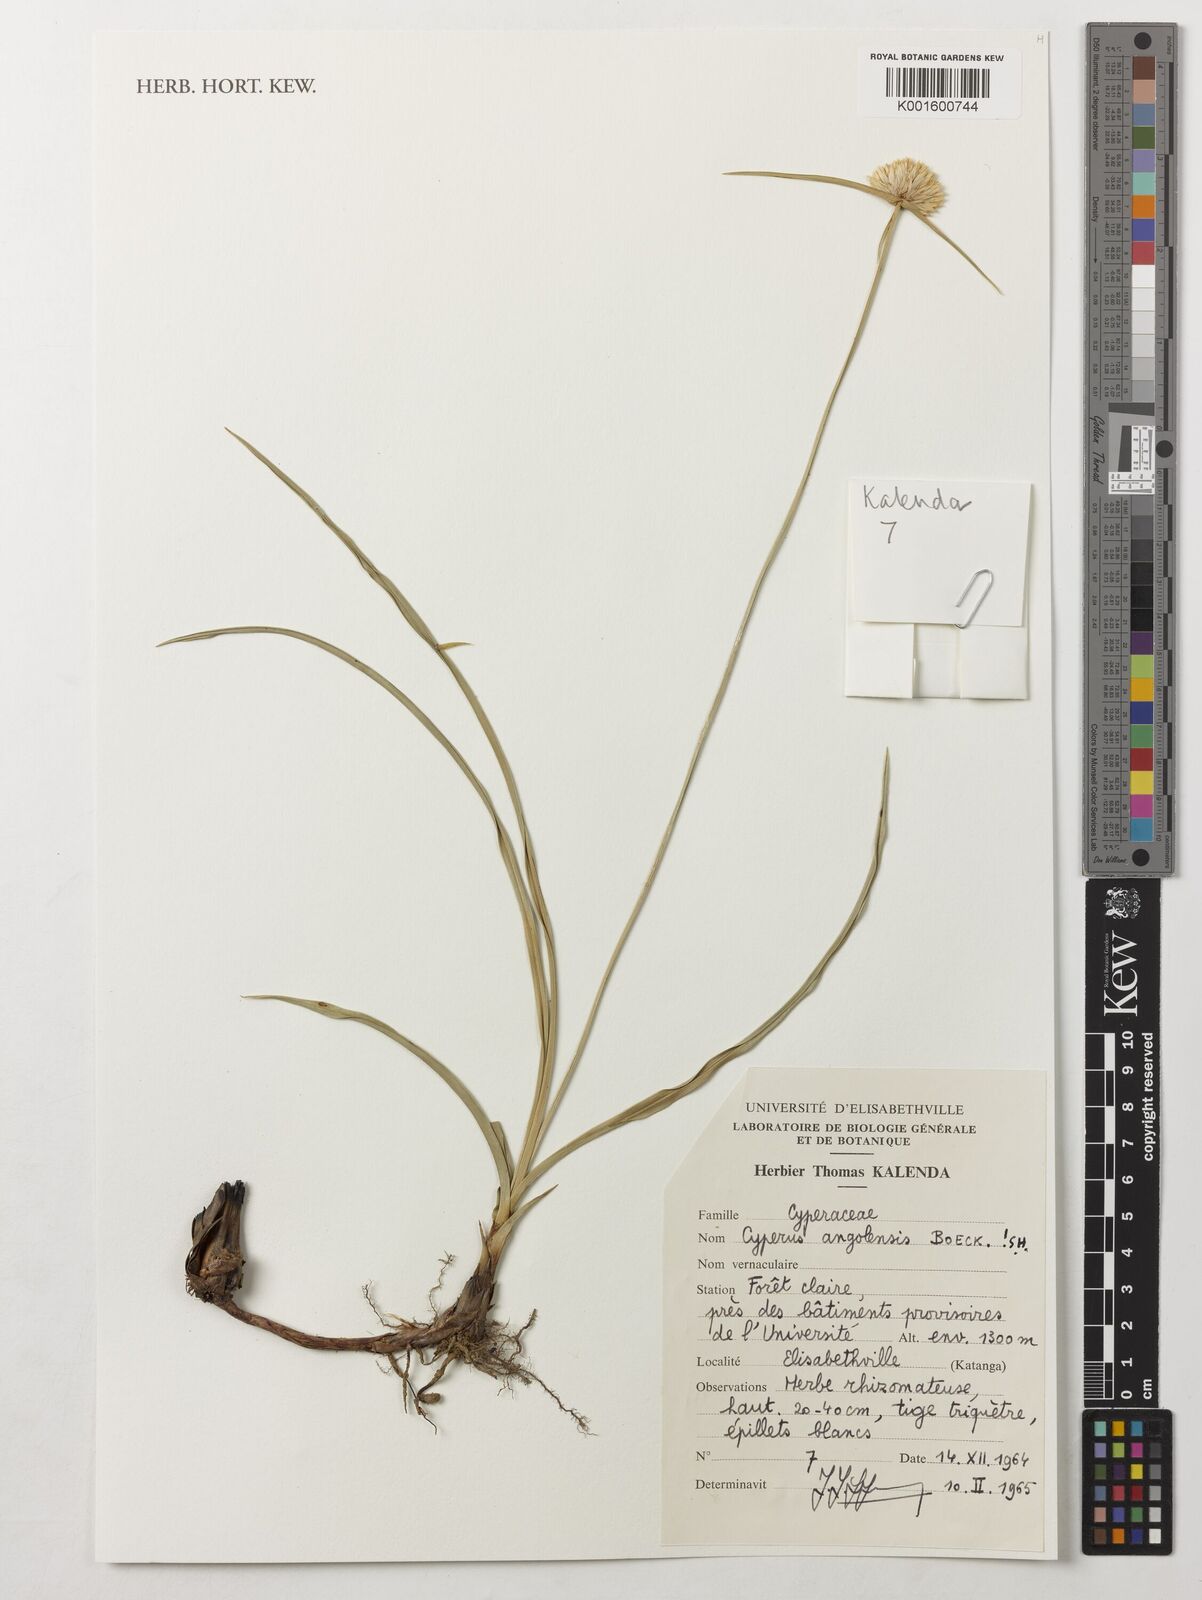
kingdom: Plantae
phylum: Tracheophyta
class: Liliopsida
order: Poales
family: Cyperaceae
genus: Cyperus
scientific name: Cyperus angolensis
